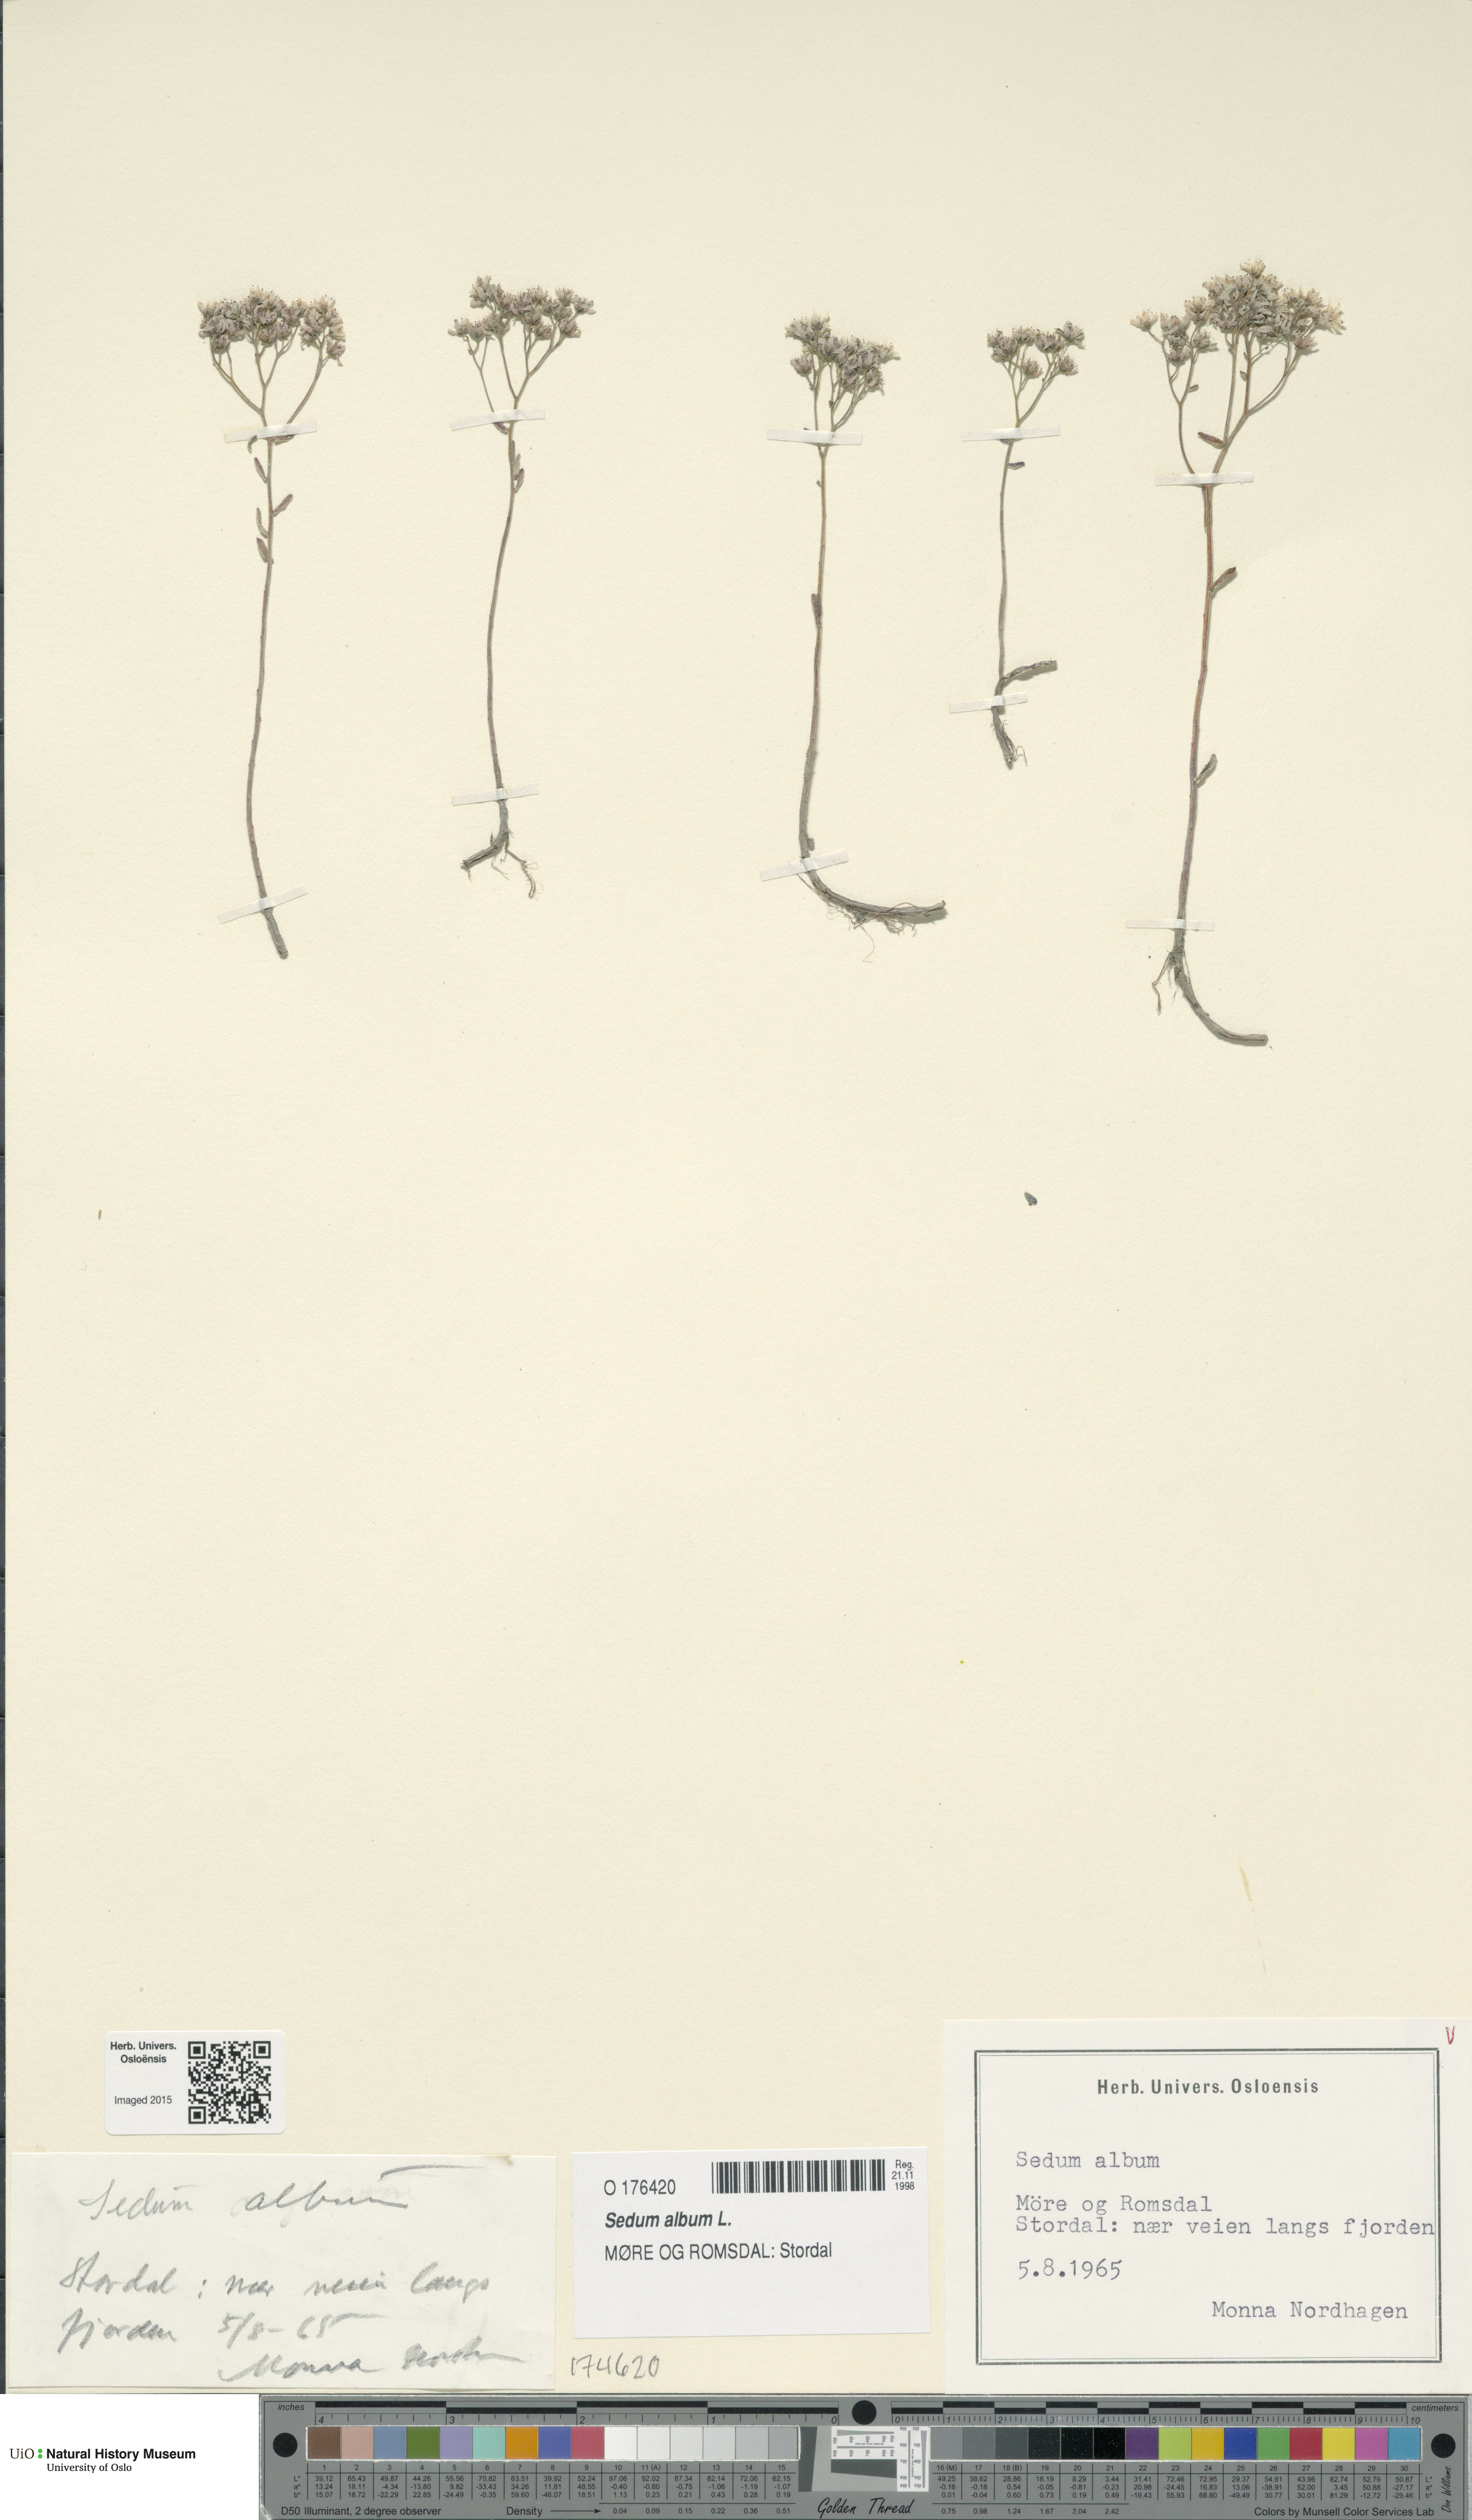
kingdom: Plantae
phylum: Tracheophyta
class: Magnoliopsida
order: Saxifragales
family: Crassulaceae
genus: Sedum
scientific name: Sedum album
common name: White stonecrop
